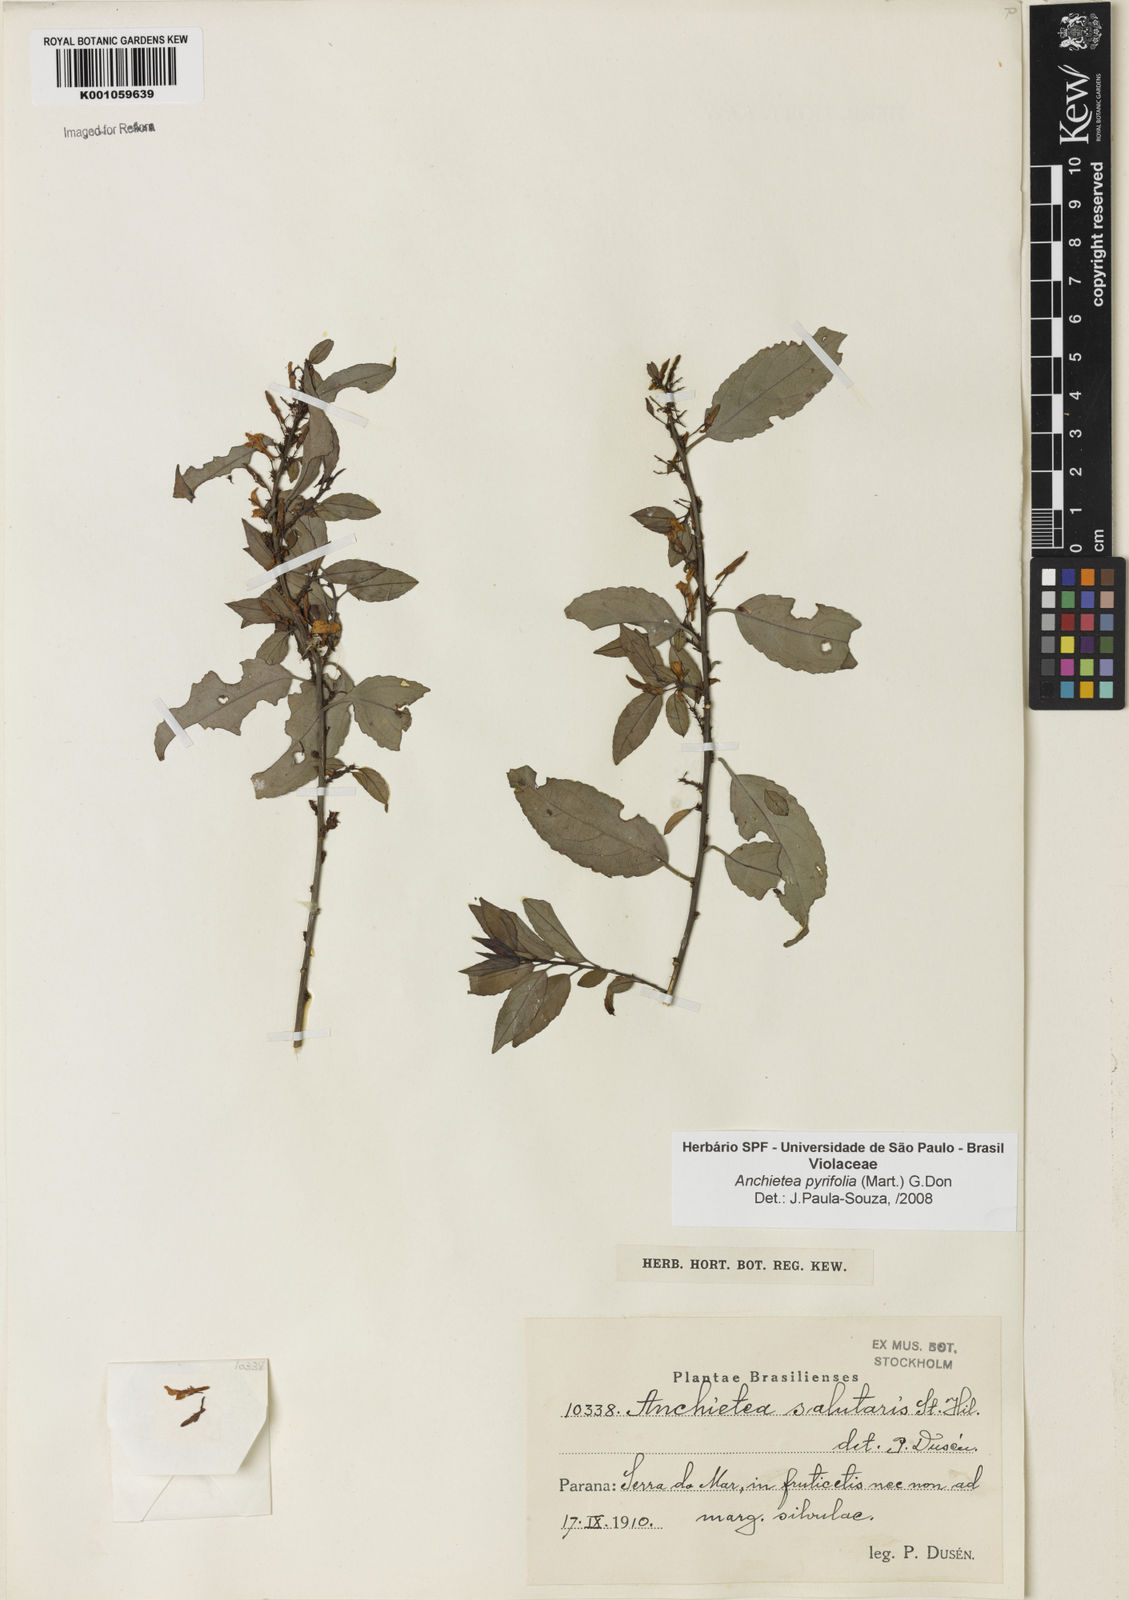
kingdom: Plantae
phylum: Tracheophyta
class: Magnoliopsida
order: Malpighiales
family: Violaceae
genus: Anchietea
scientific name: Anchietea pyrifolia
